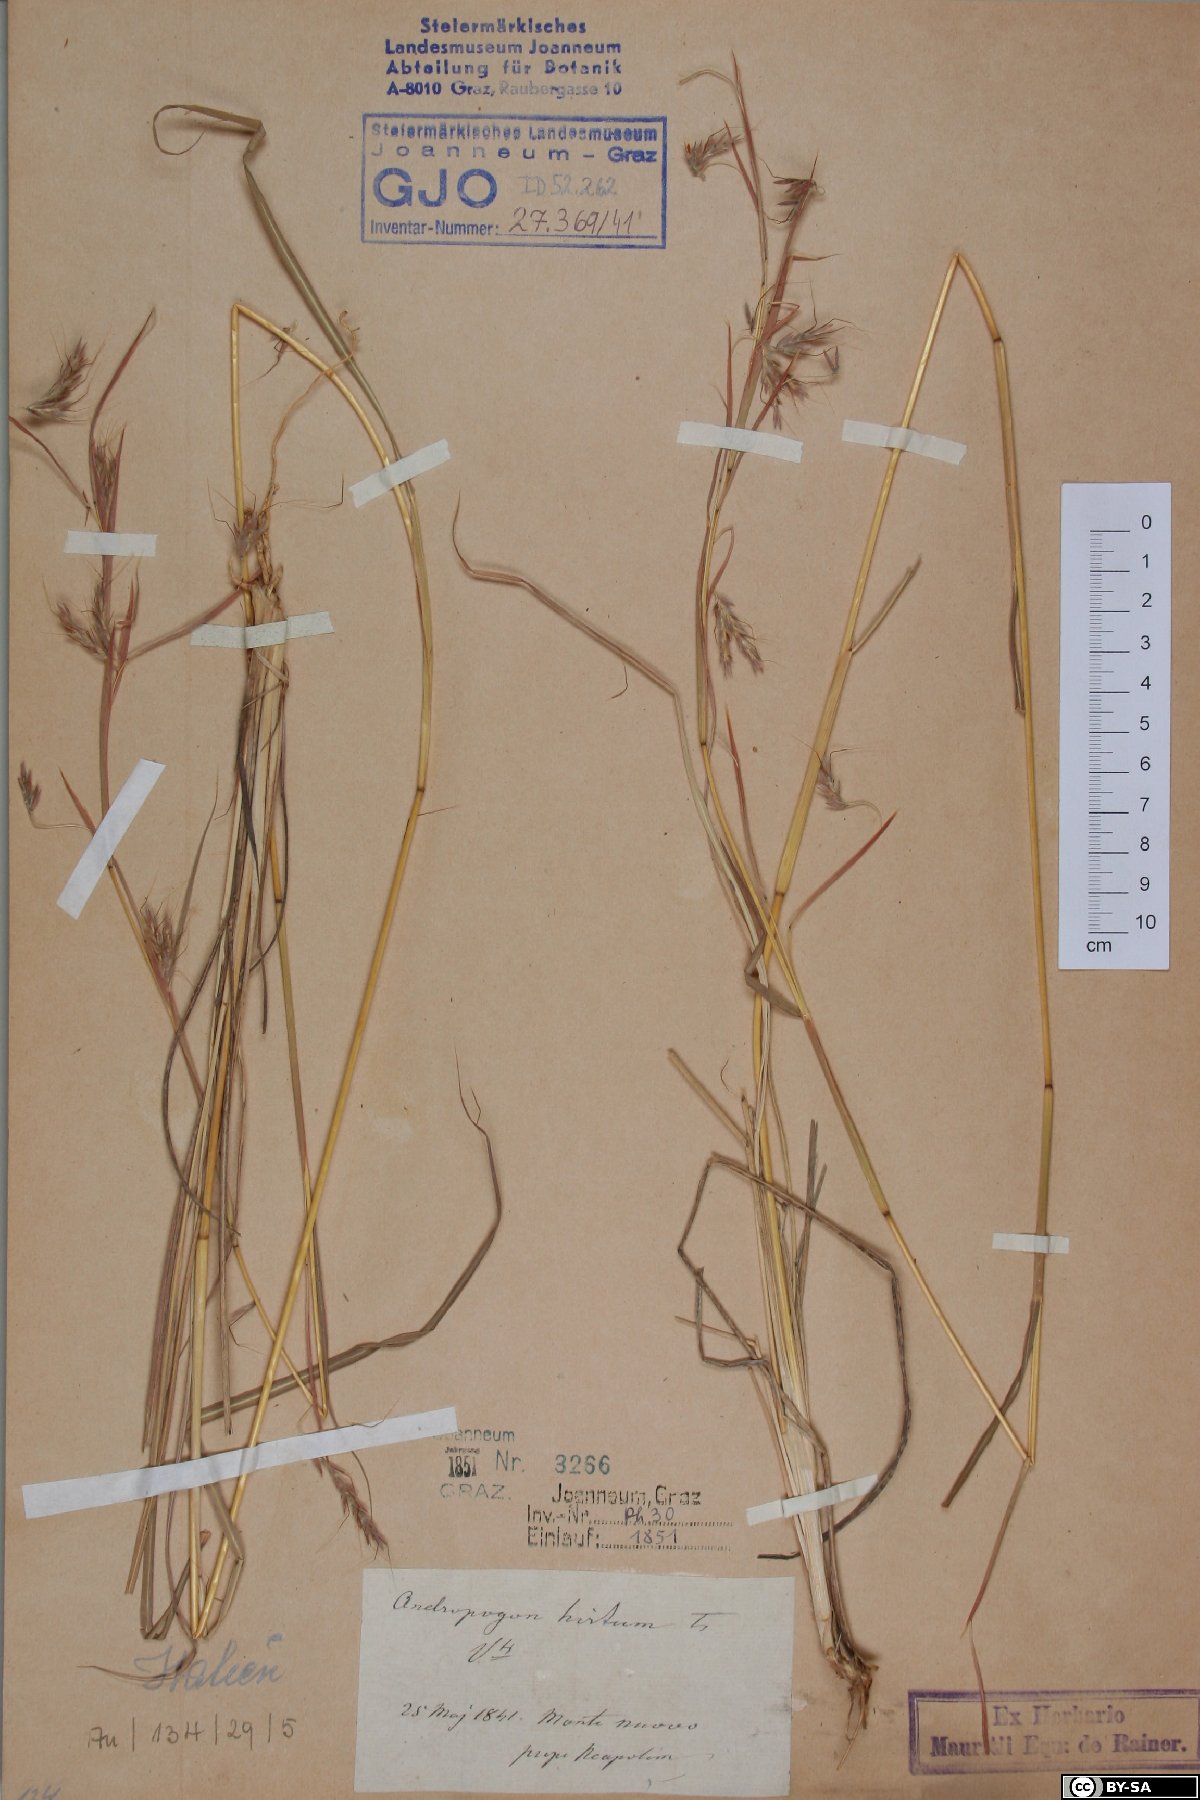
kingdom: Plantae
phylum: Tracheophyta
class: Liliopsida
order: Poales
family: Poaceae
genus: Hyparrhenia
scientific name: Hyparrhenia hirta
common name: Thatching grass
